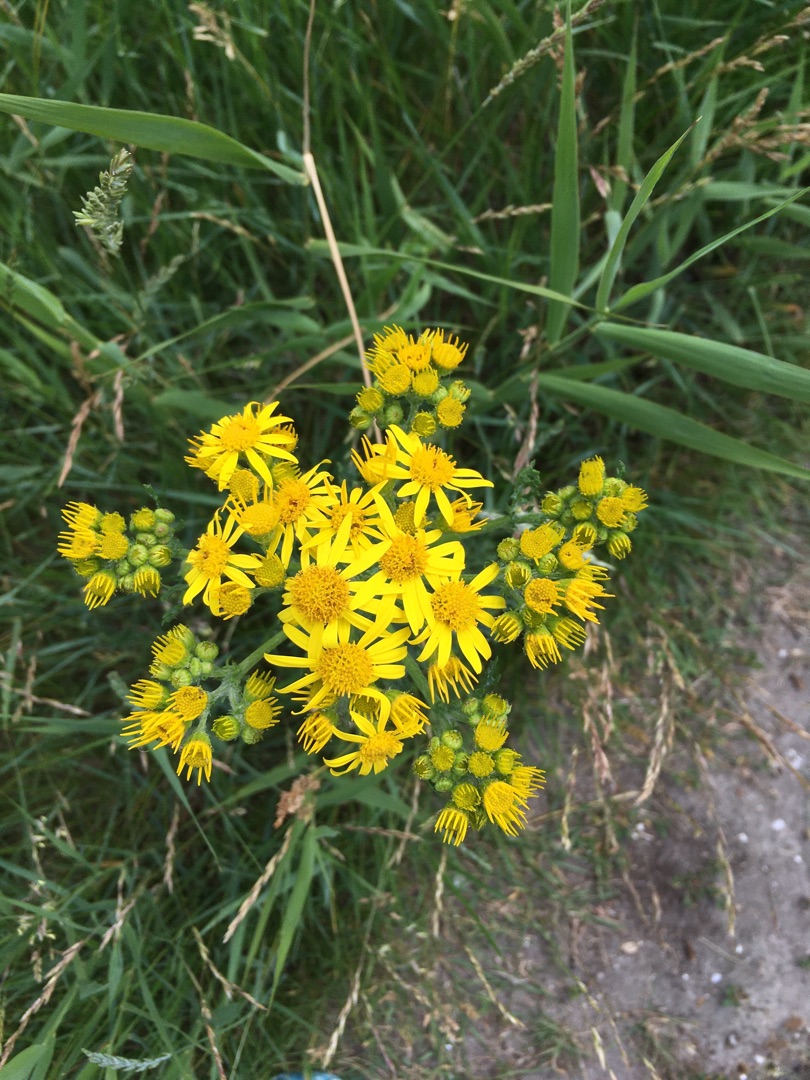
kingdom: Plantae
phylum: Tracheophyta
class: Magnoliopsida
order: Asterales
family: Asteraceae
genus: Jacobaea
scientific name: Jacobaea vulgaris
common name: Eng-brandbæger
